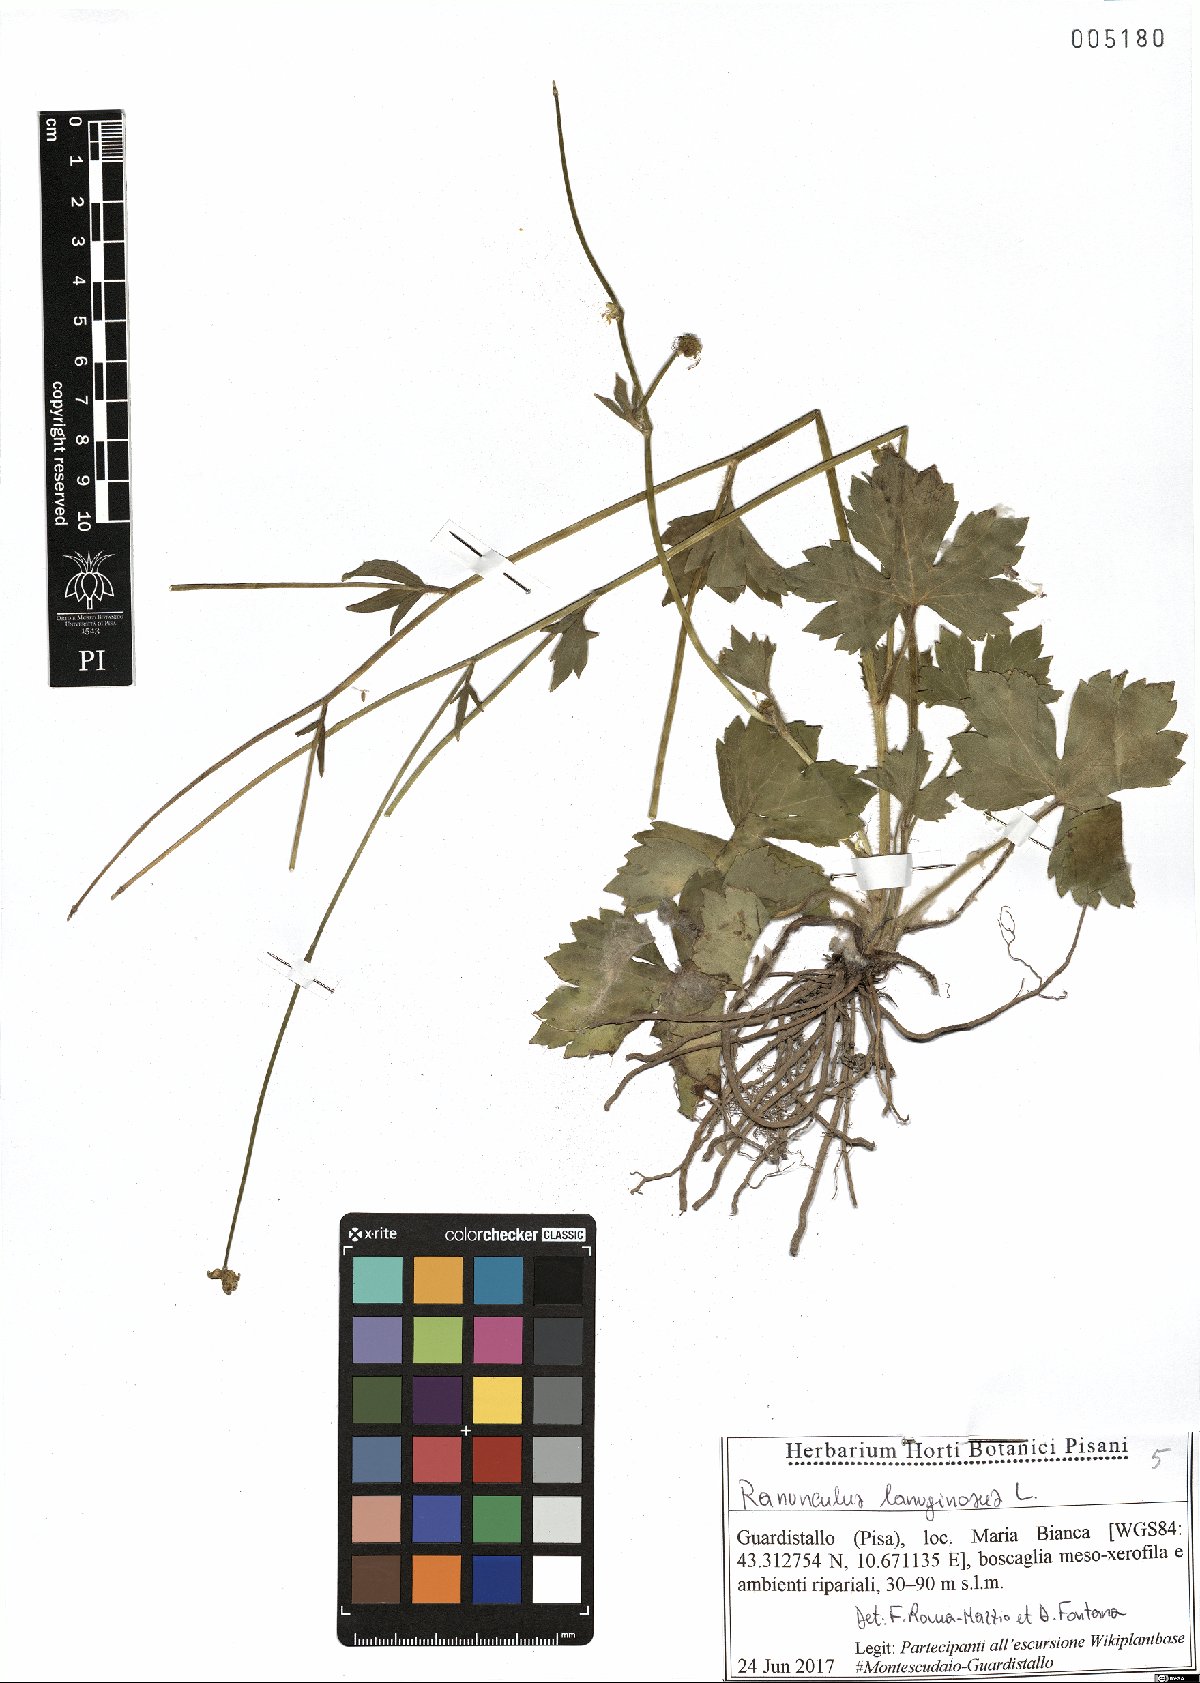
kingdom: Plantae
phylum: Tracheophyta
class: Magnoliopsida
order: Ranunculales
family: Ranunculaceae
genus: Ranunculus
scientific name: Ranunculus lanuginosus
